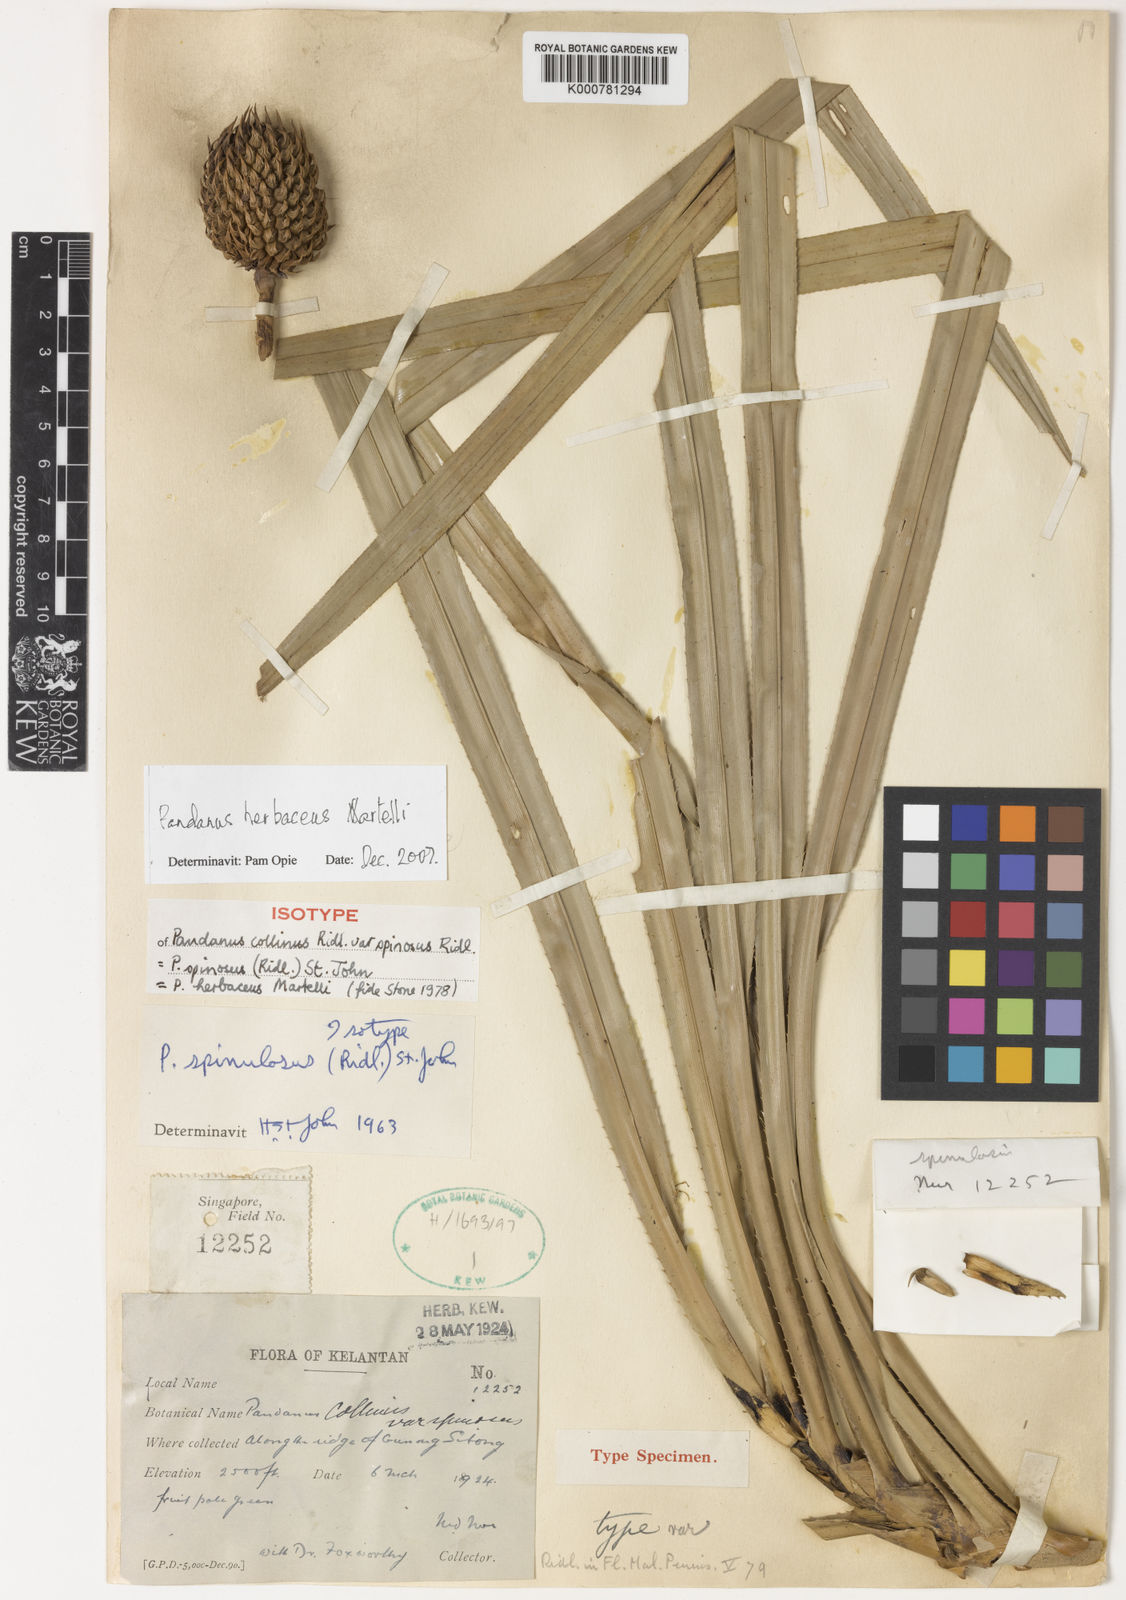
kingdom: Plantae
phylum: Tracheophyta
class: Liliopsida
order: Pandanales
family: Pandanaceae
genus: Benstonea
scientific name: Benstonea herbacea
